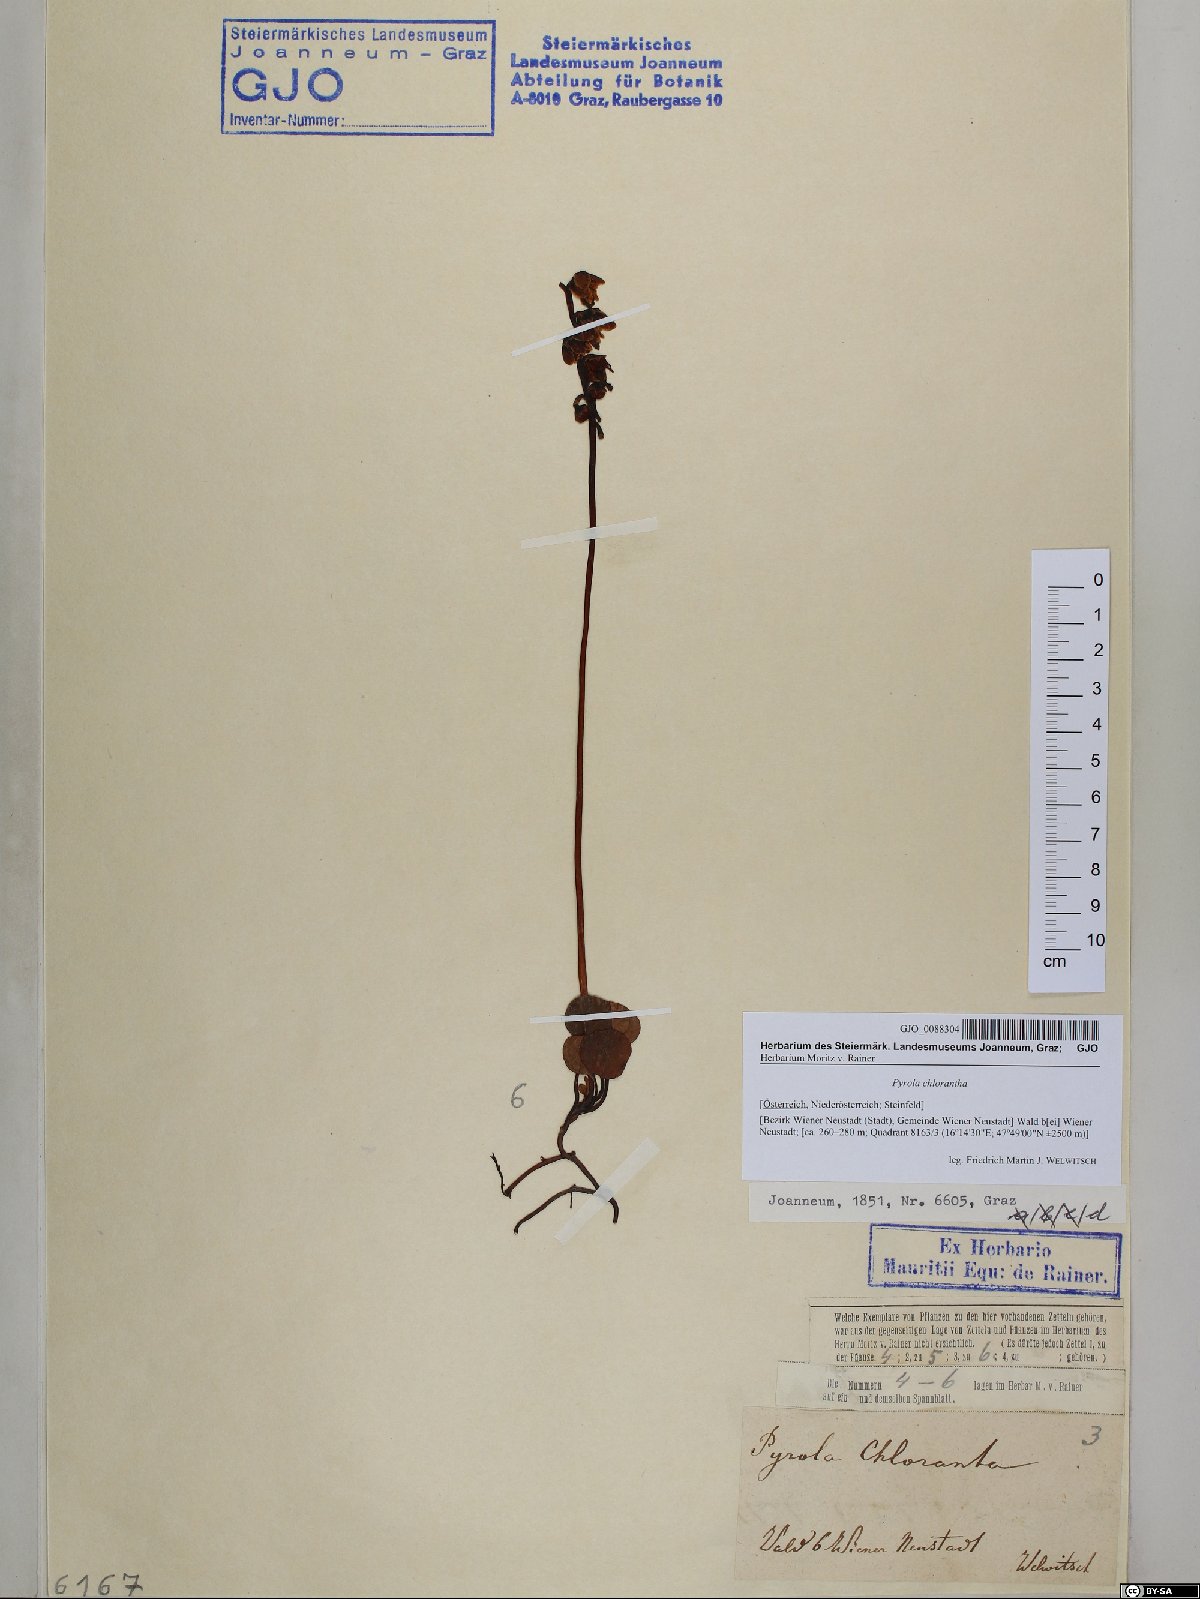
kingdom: Plantae
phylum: Tracheophyta
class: Magnoliopsida
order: Ericales
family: Ericaceae
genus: Pyrola
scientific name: Pyrola chlorantha
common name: Green wintergreen
